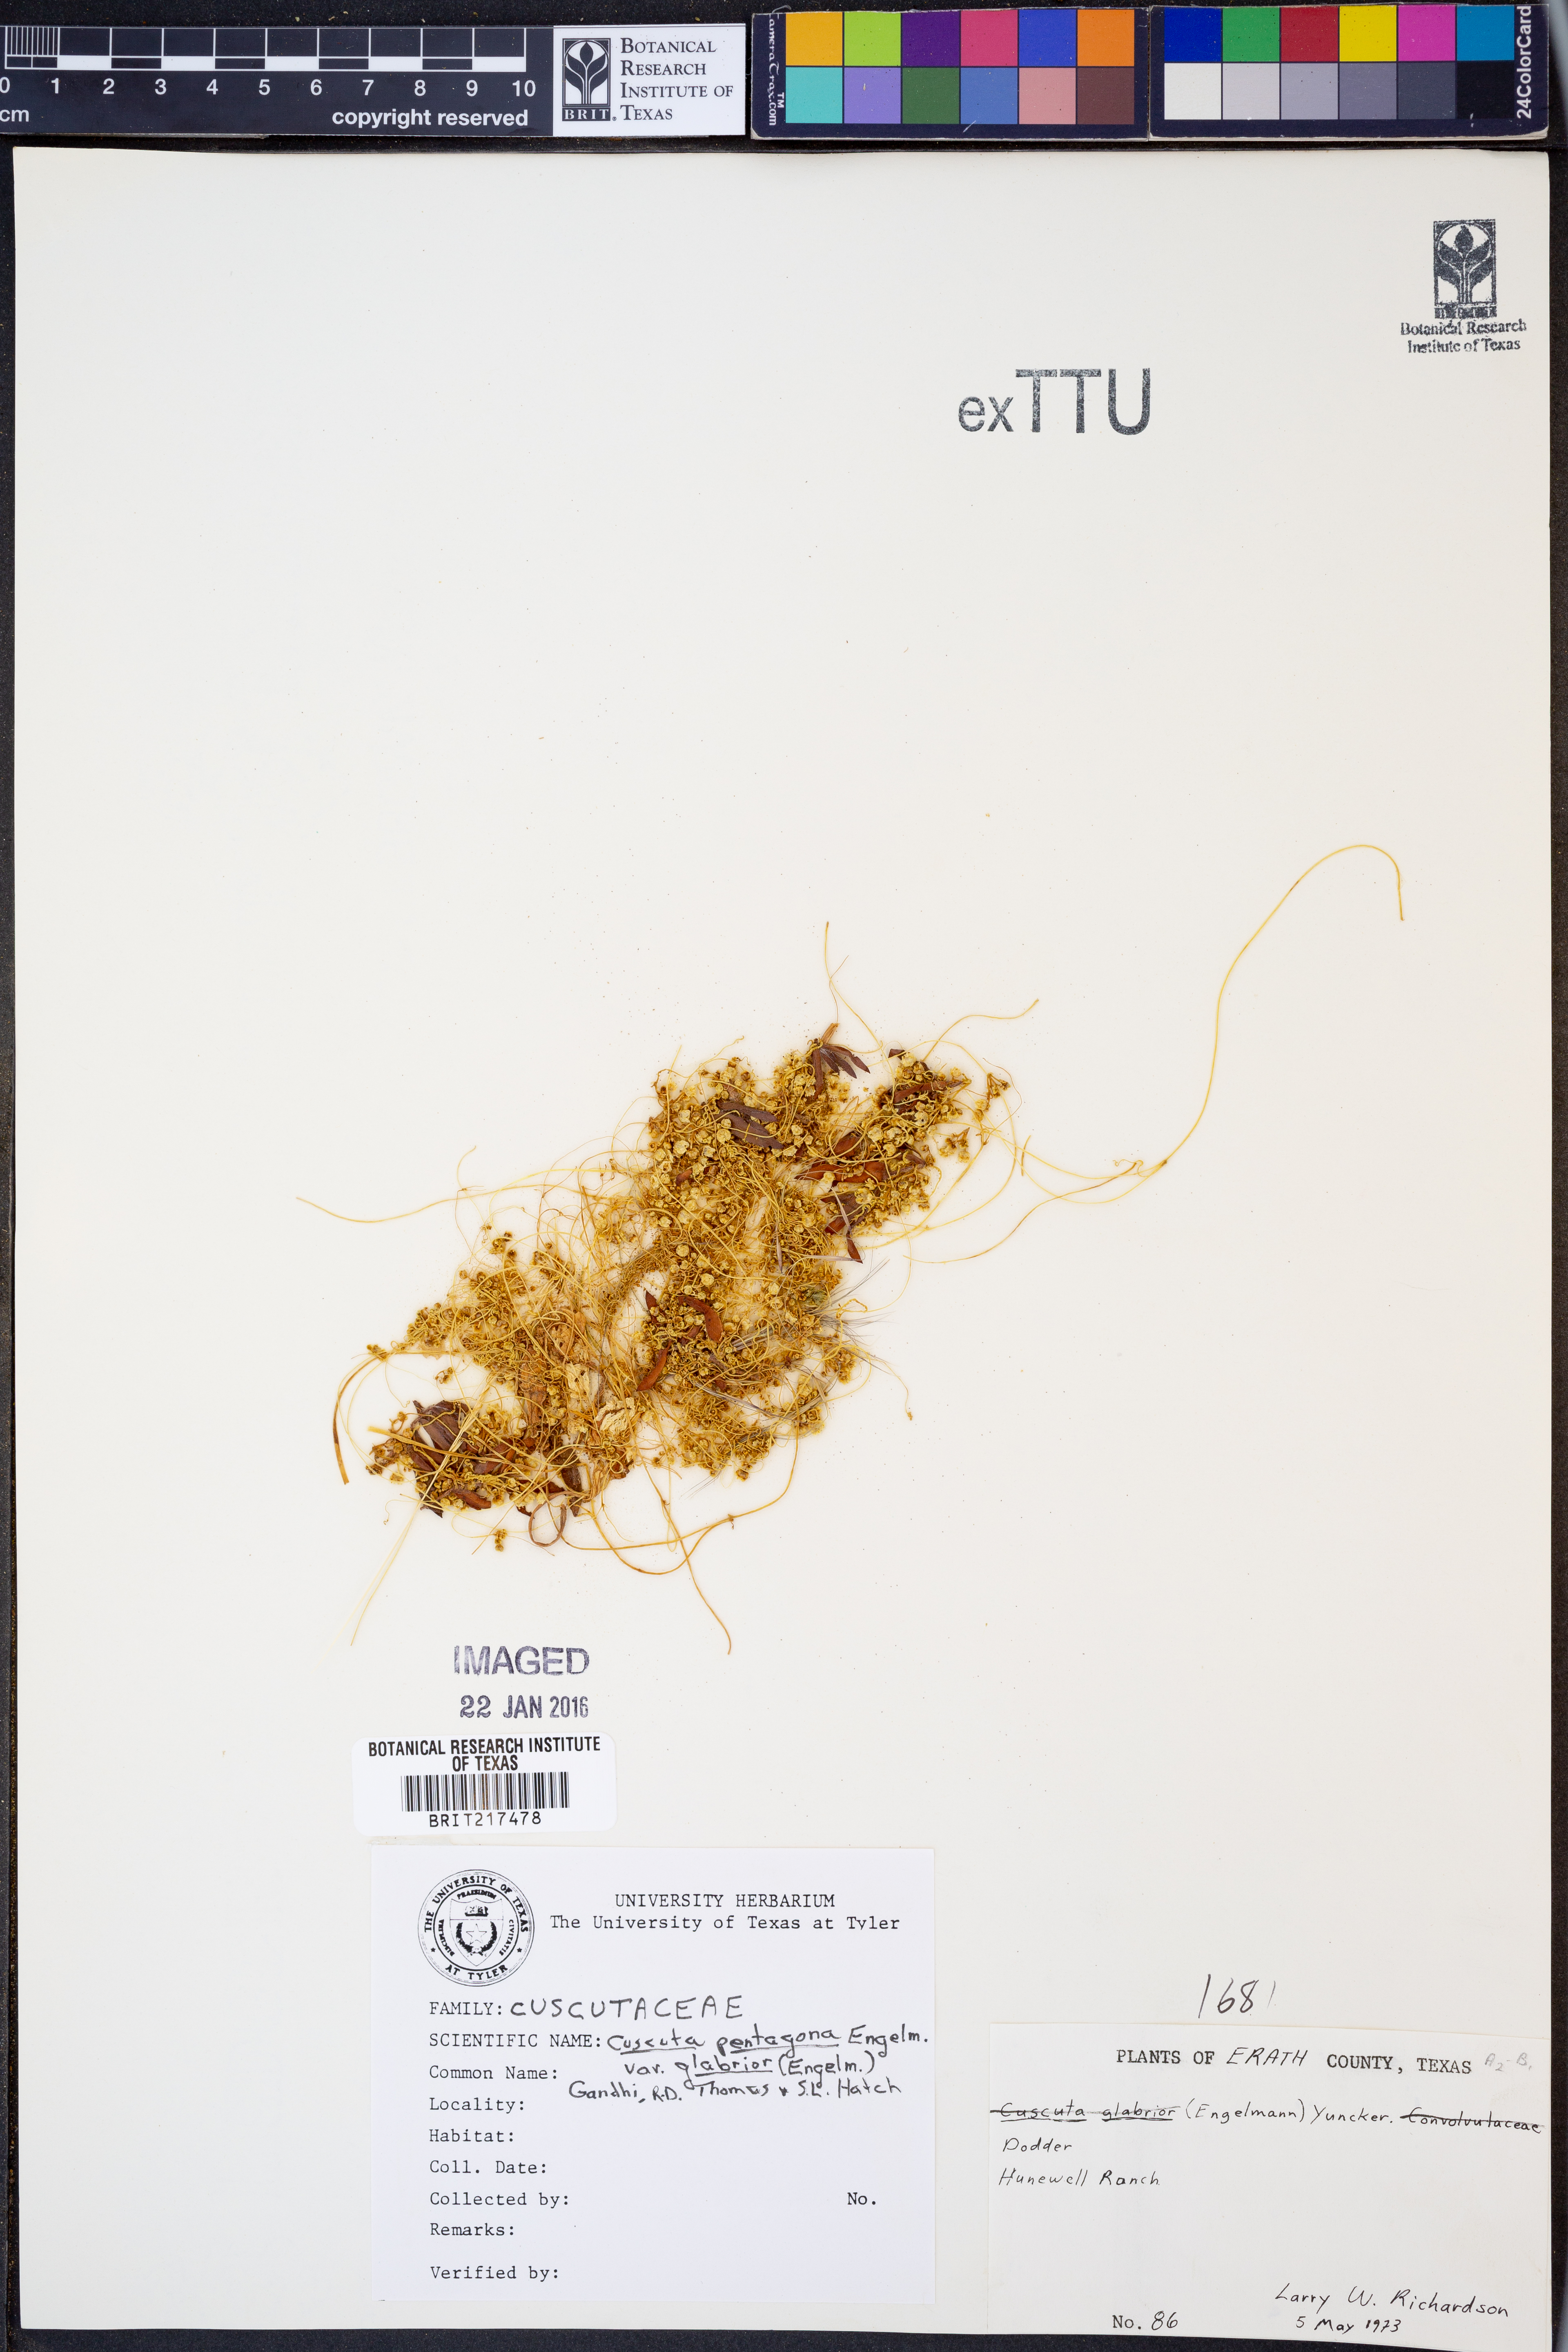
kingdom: Plantae
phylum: Tracheophyta
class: Magnoliopsida
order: Solanales
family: Convolvulaceae
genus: Cuscuta
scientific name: Cuscuta glabrior
